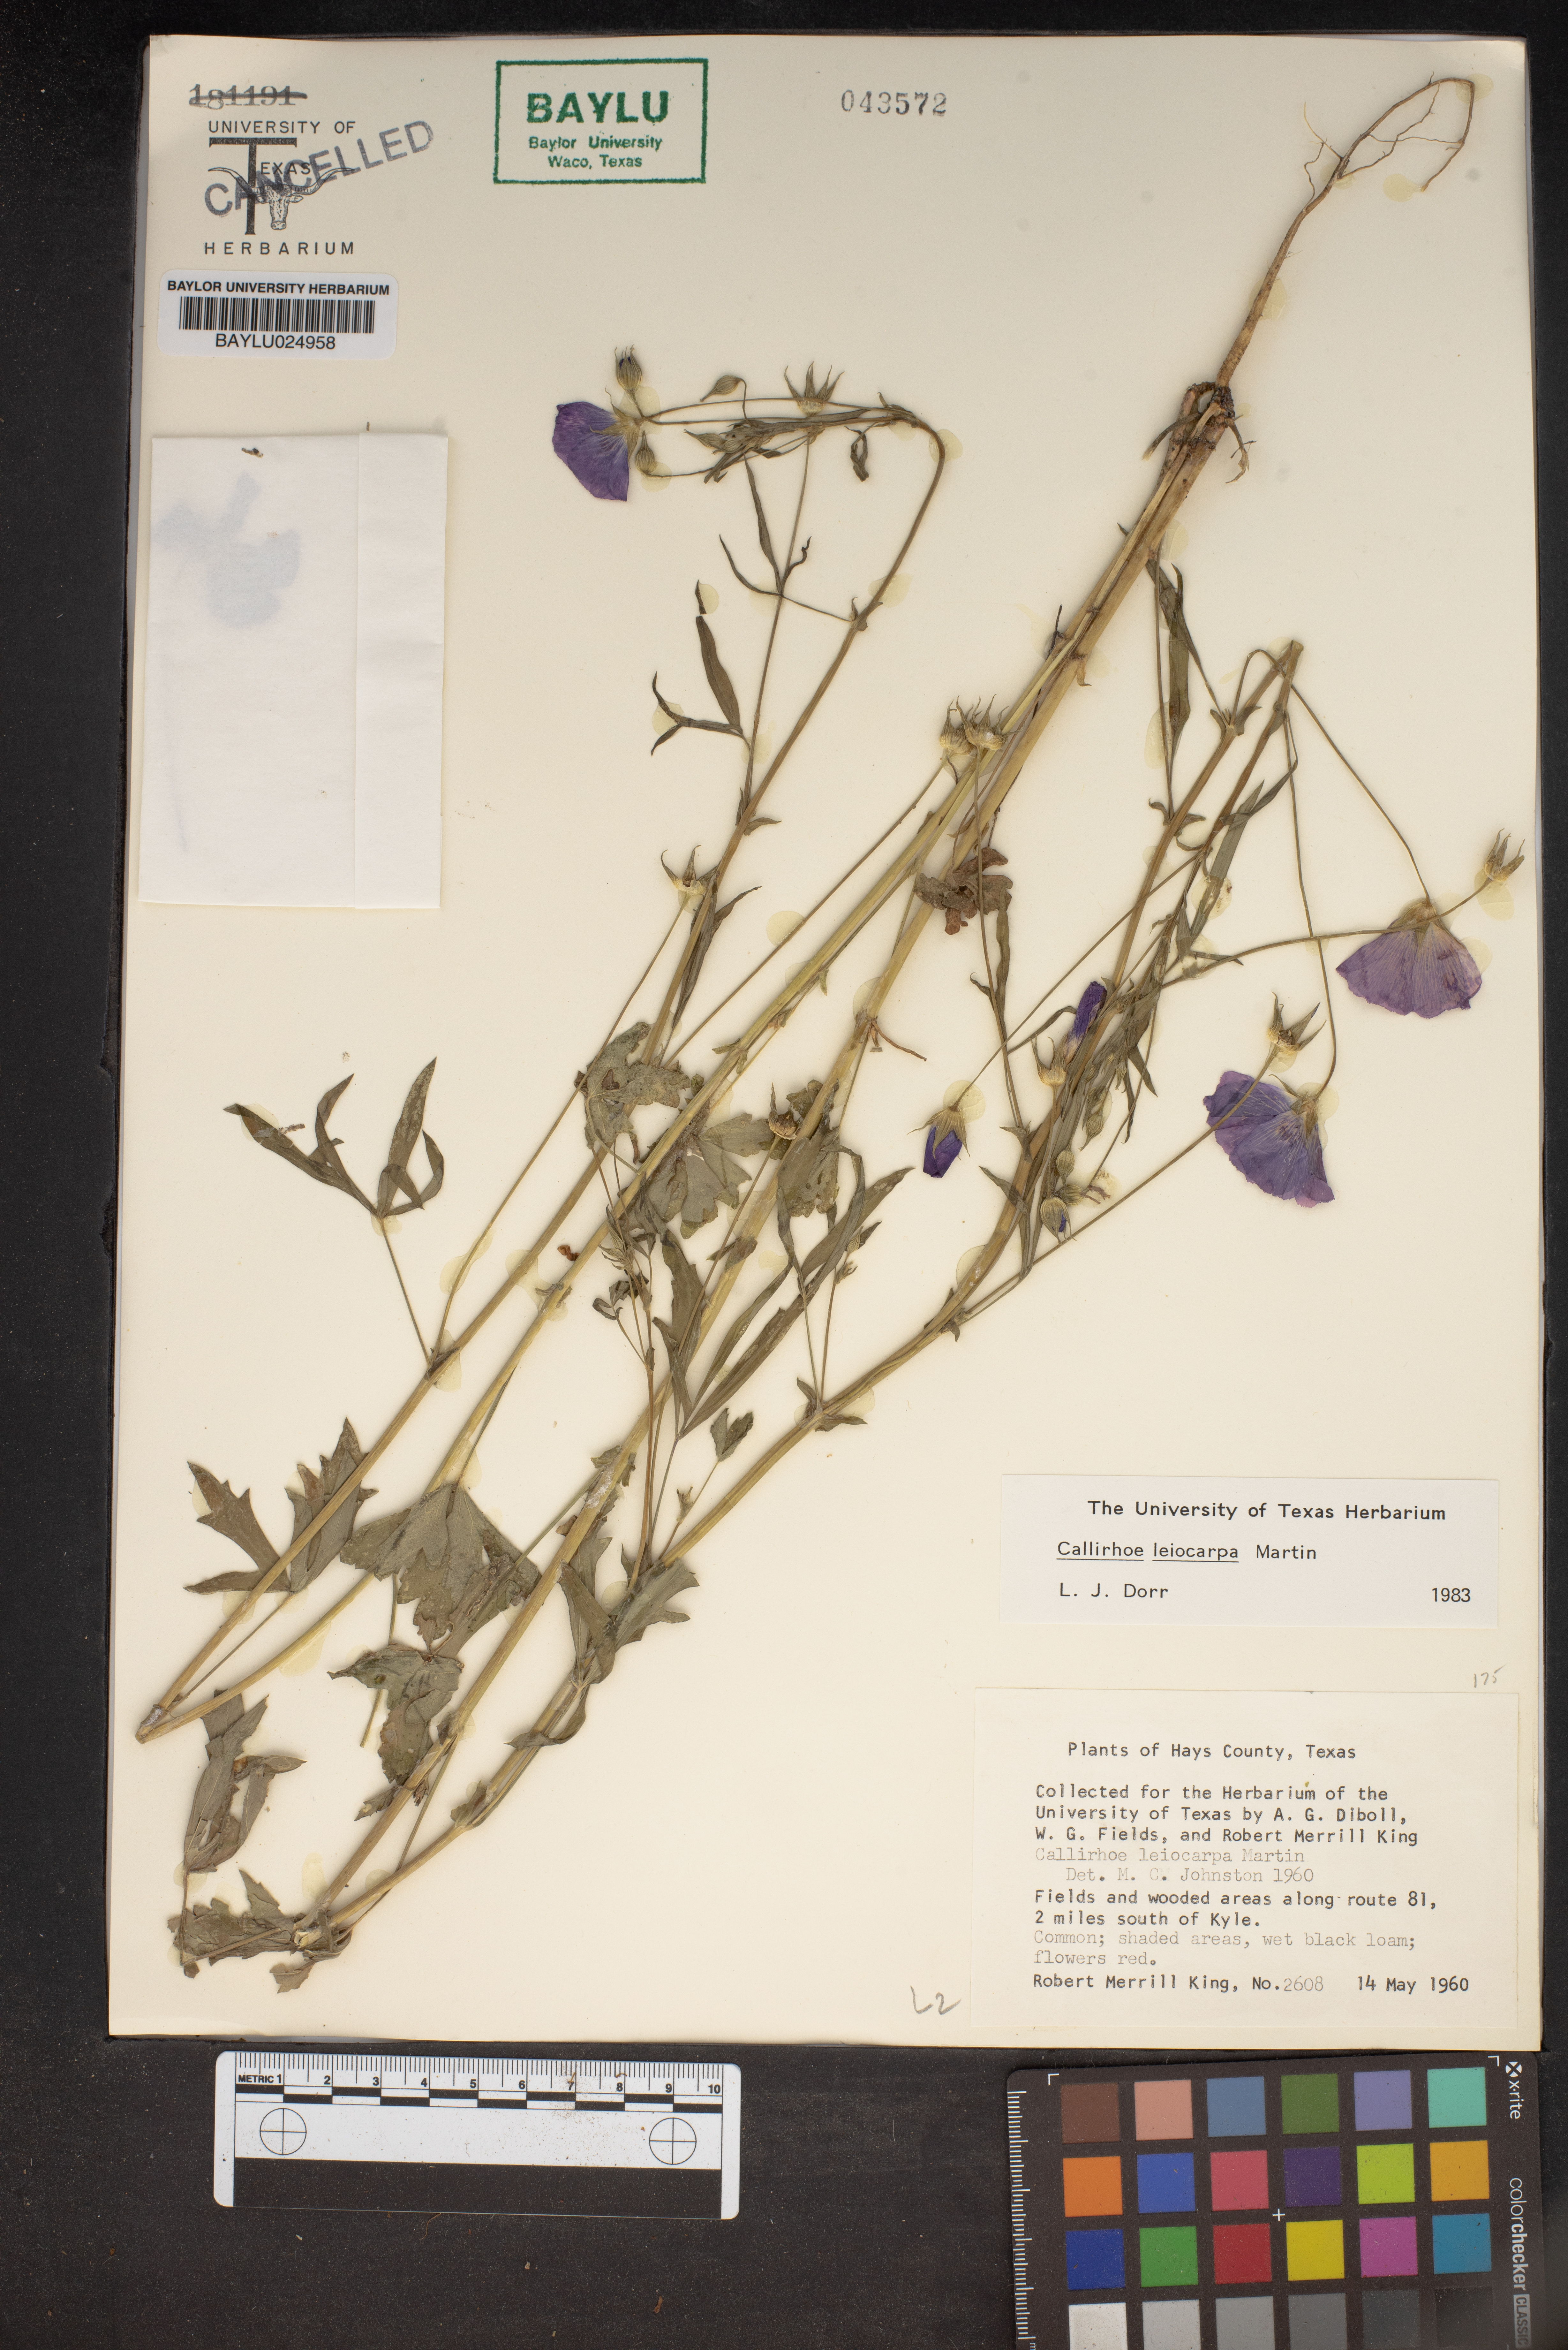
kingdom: Plantae
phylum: Tracheophyta
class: Magnoliopsida
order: Malvales
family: Malvaceae
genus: Callirhoe
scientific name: Callirhoe leiocarpa
